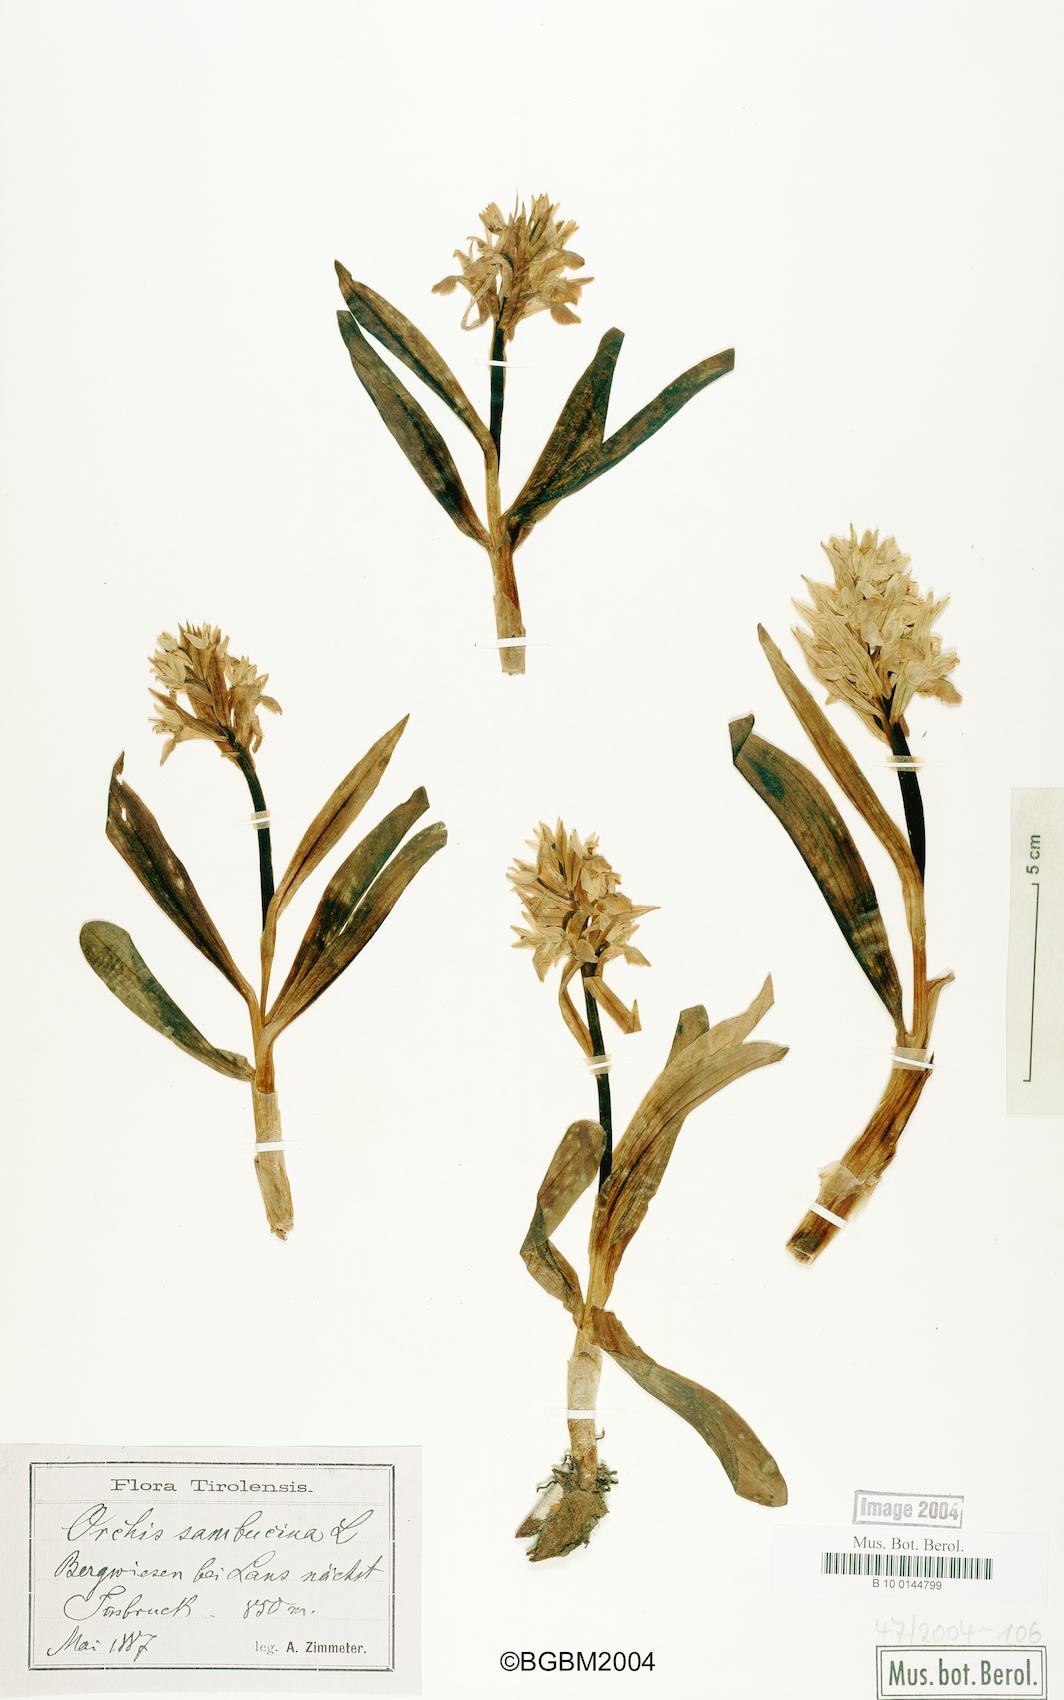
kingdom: Plantae
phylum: Tracheophyta
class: Liliopsida
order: Asparagales
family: Orchidaceae
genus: Dactylorhiza
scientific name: Dactylorhiza sambucina
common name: Elder-flowered orchid
